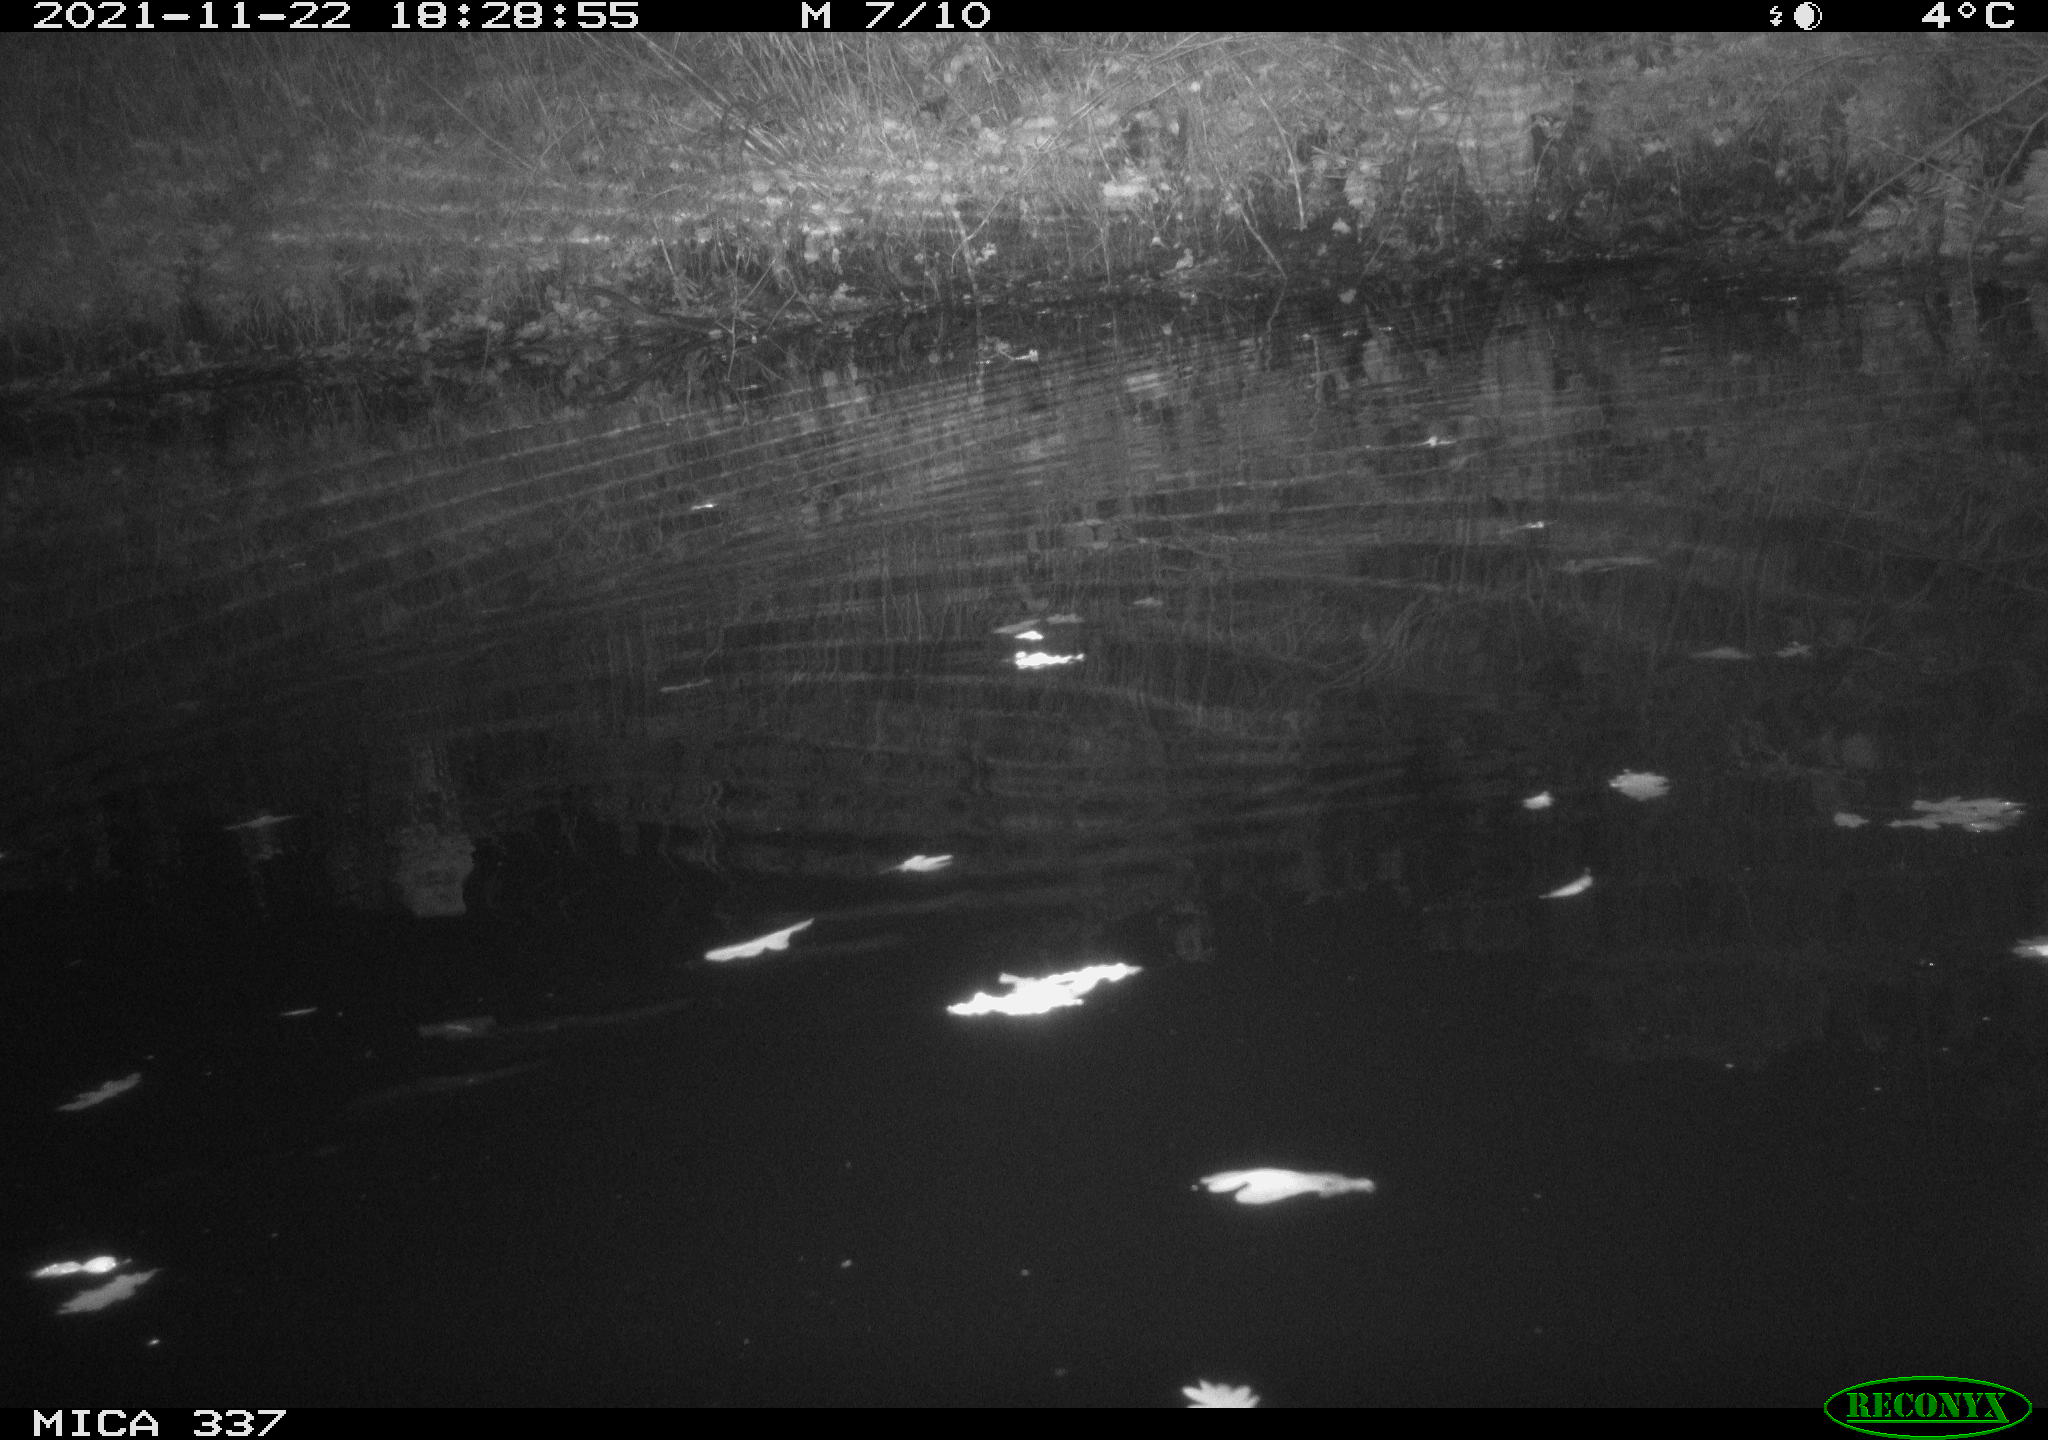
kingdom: Animalia
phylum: Chordata
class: Mammalia
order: Rodentia
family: Muridae
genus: Rattus
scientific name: Rattus norvegicus
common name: Brown rat
